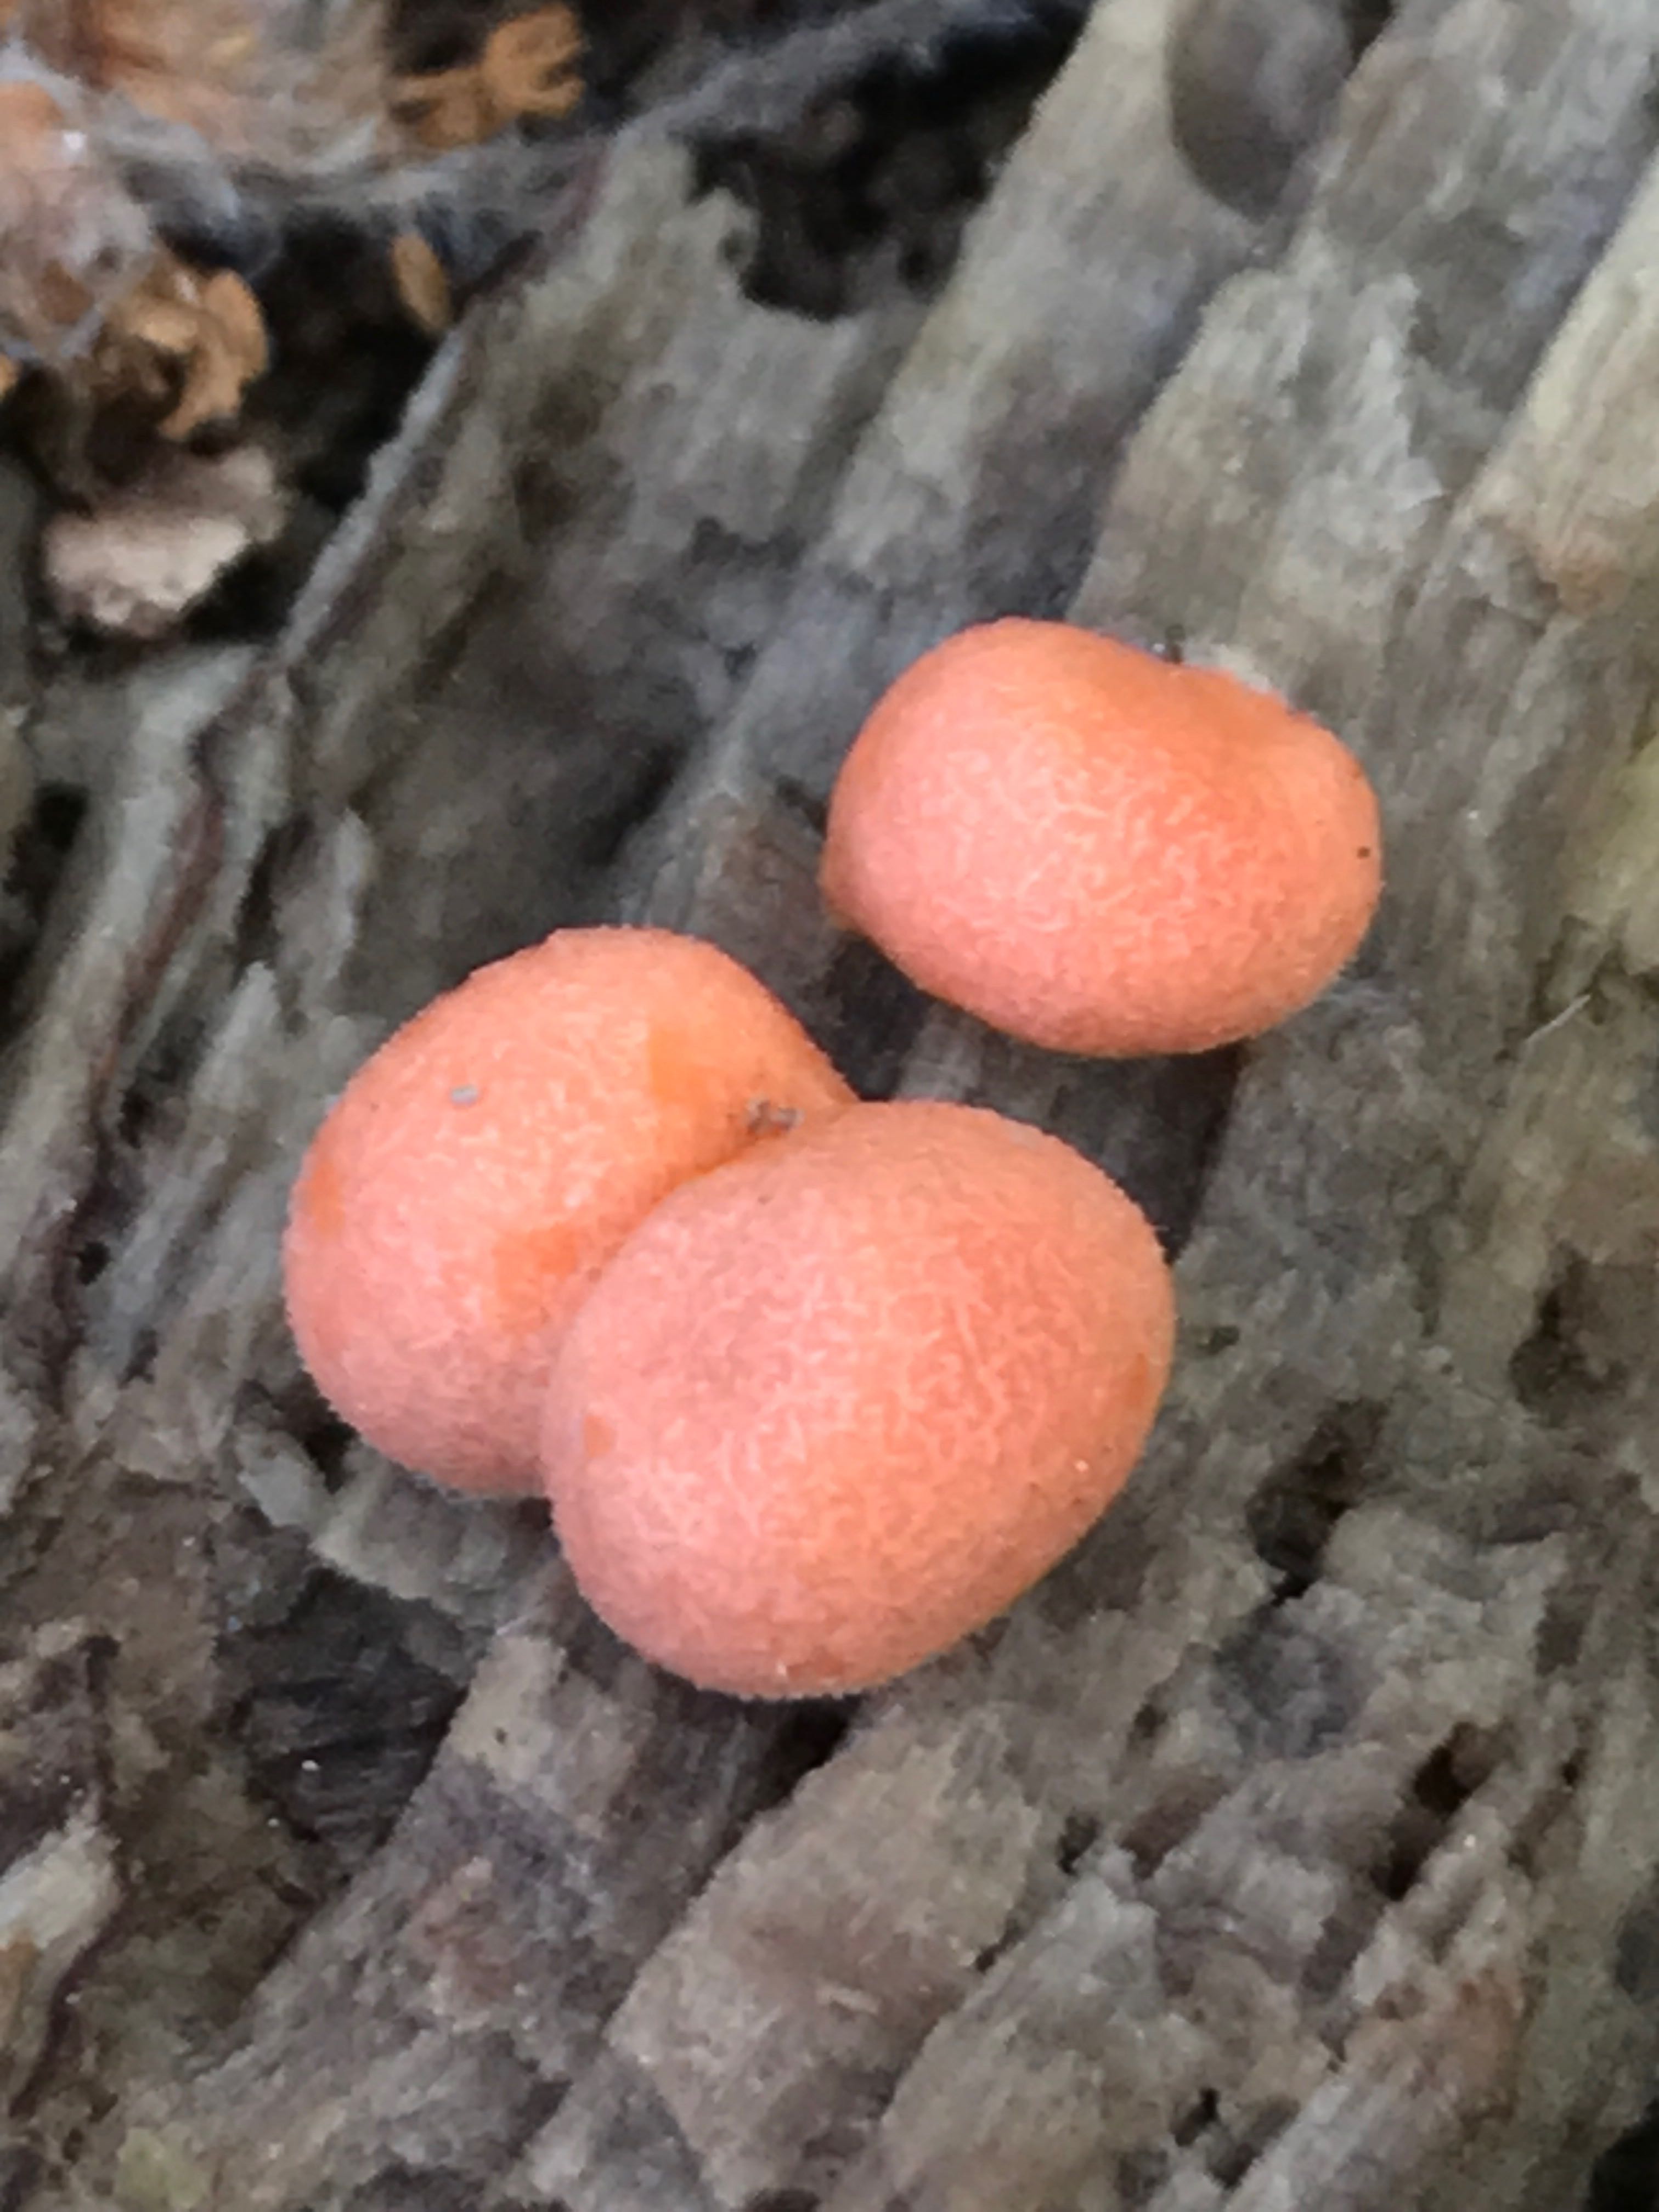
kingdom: Protozoa
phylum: Mycetozoa
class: Myxomycetes
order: Cribrariales
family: Tubiferaceae
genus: Lycogala
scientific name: Lycogala epidendrum
